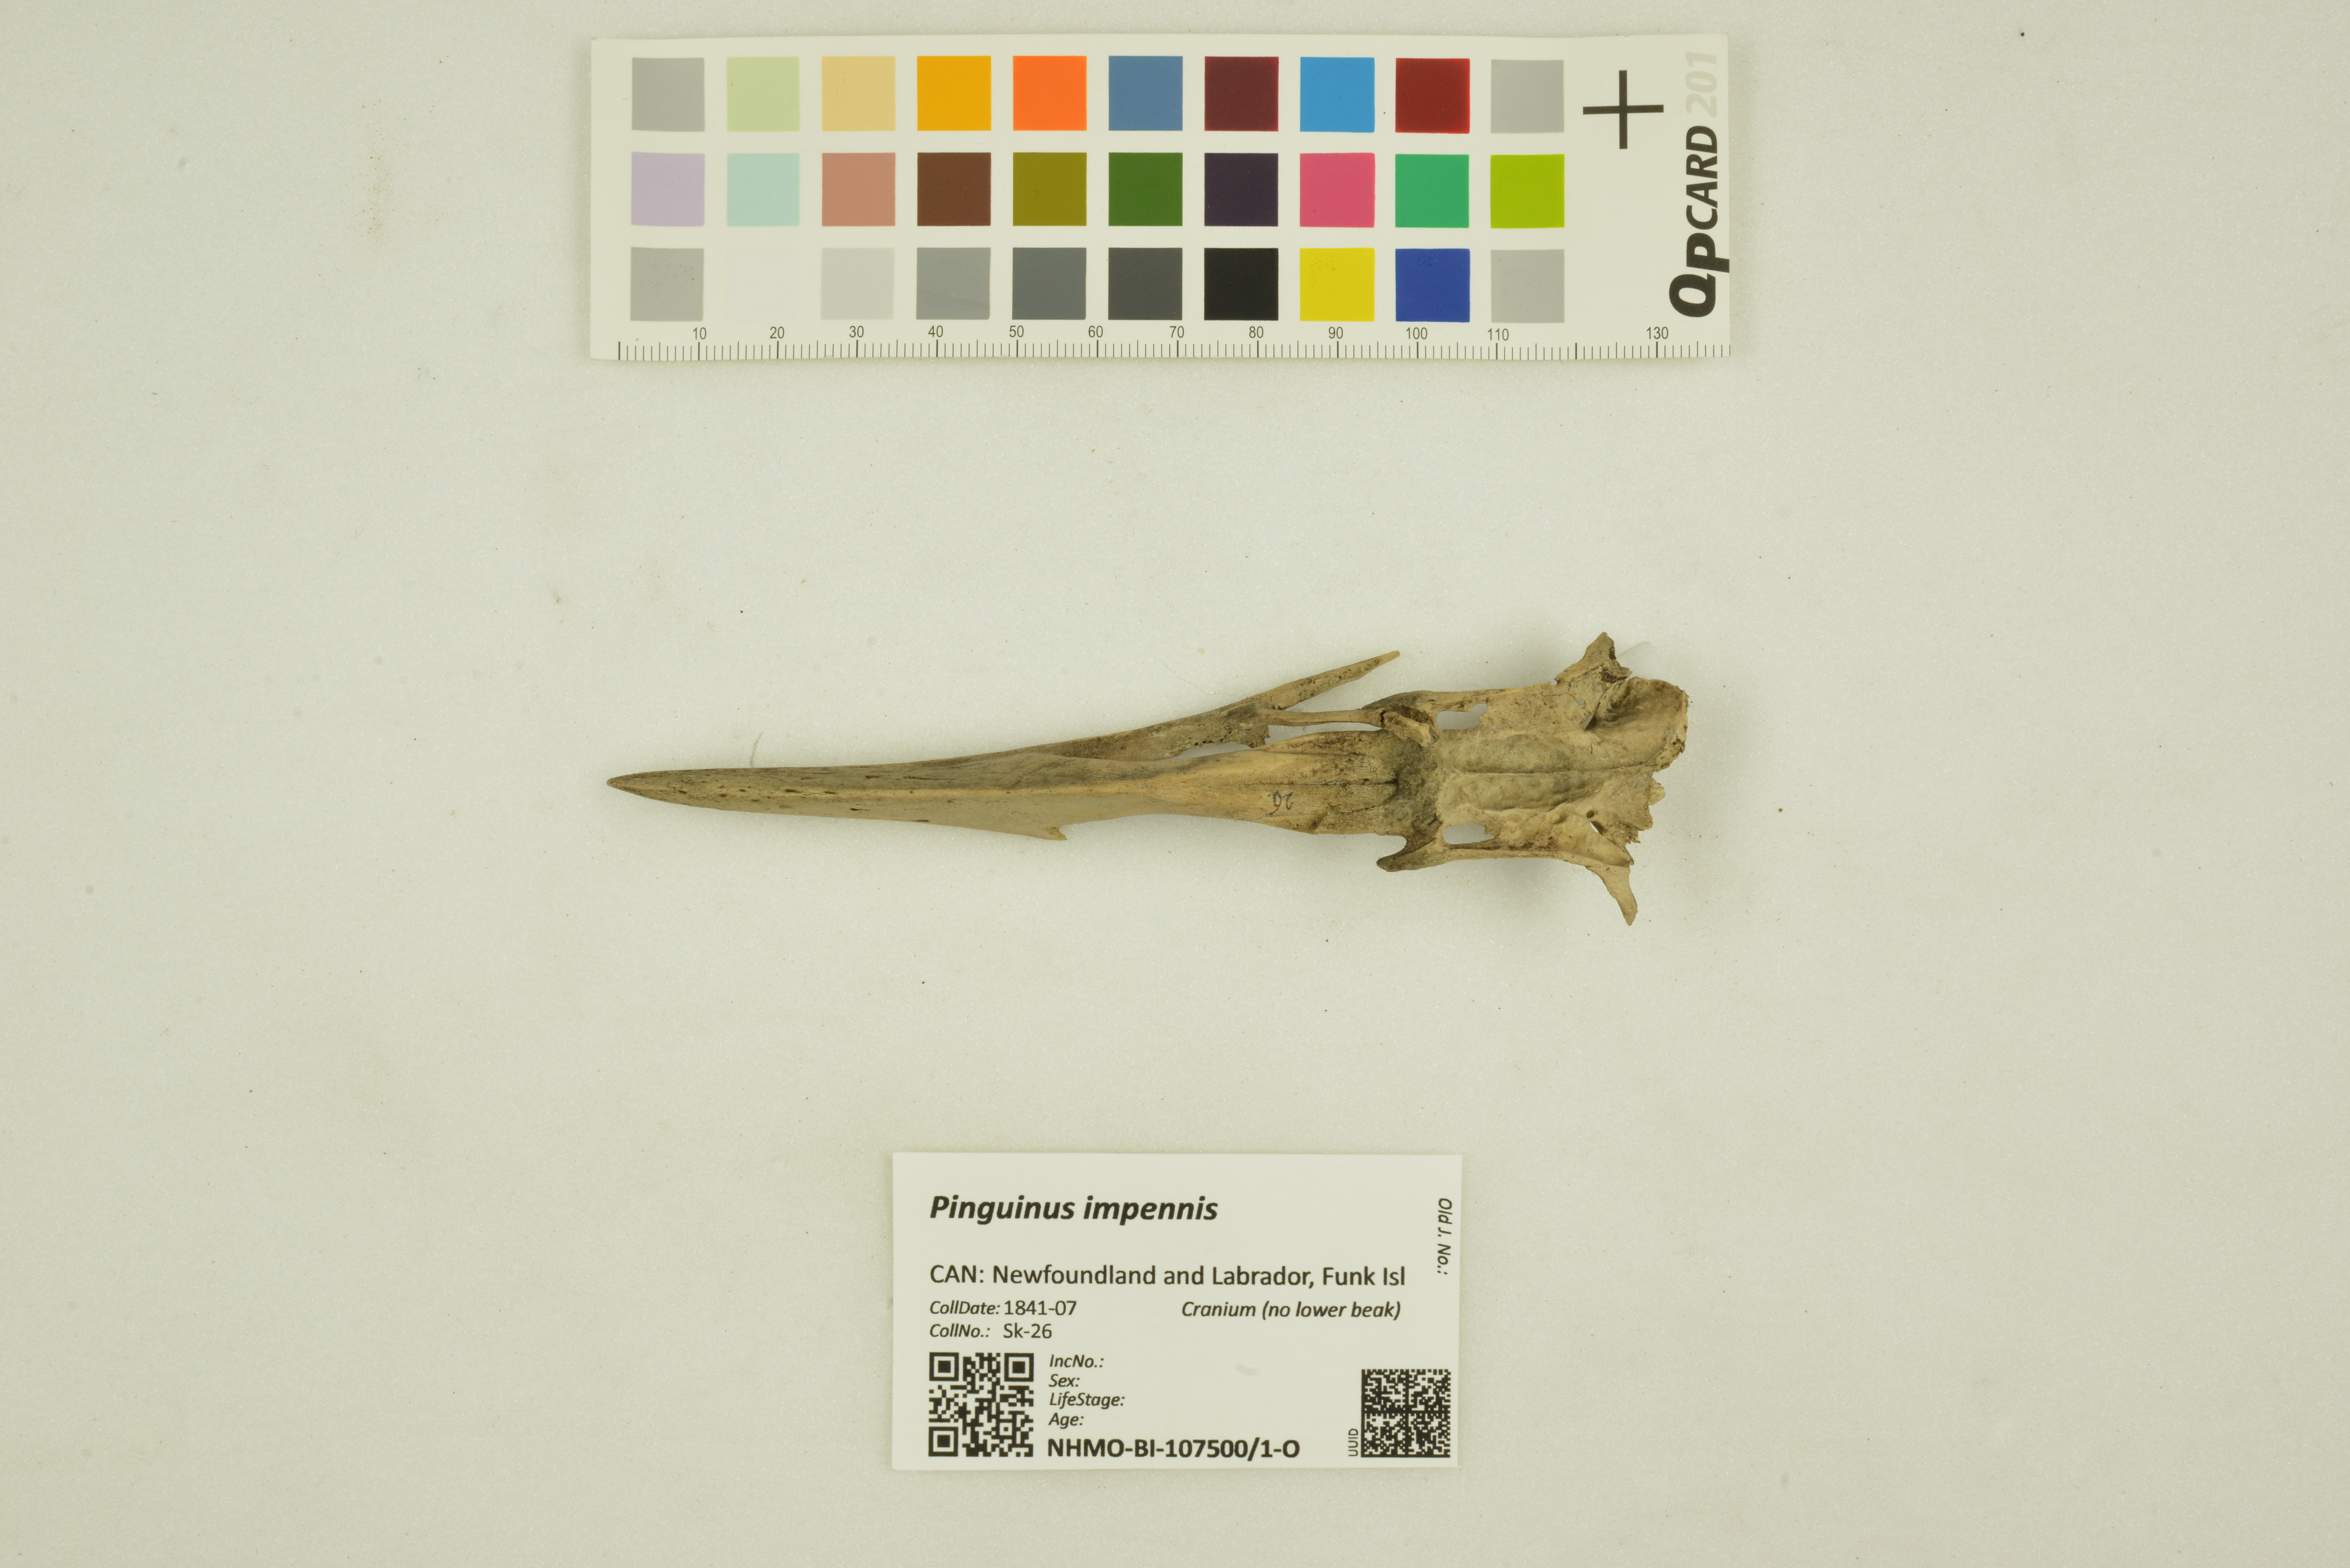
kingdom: Animalia
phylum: Chordata
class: Aves
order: Charadriiformes
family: Alcidae
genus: Pinguinus
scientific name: Pinguinus impennis
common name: Great auk
